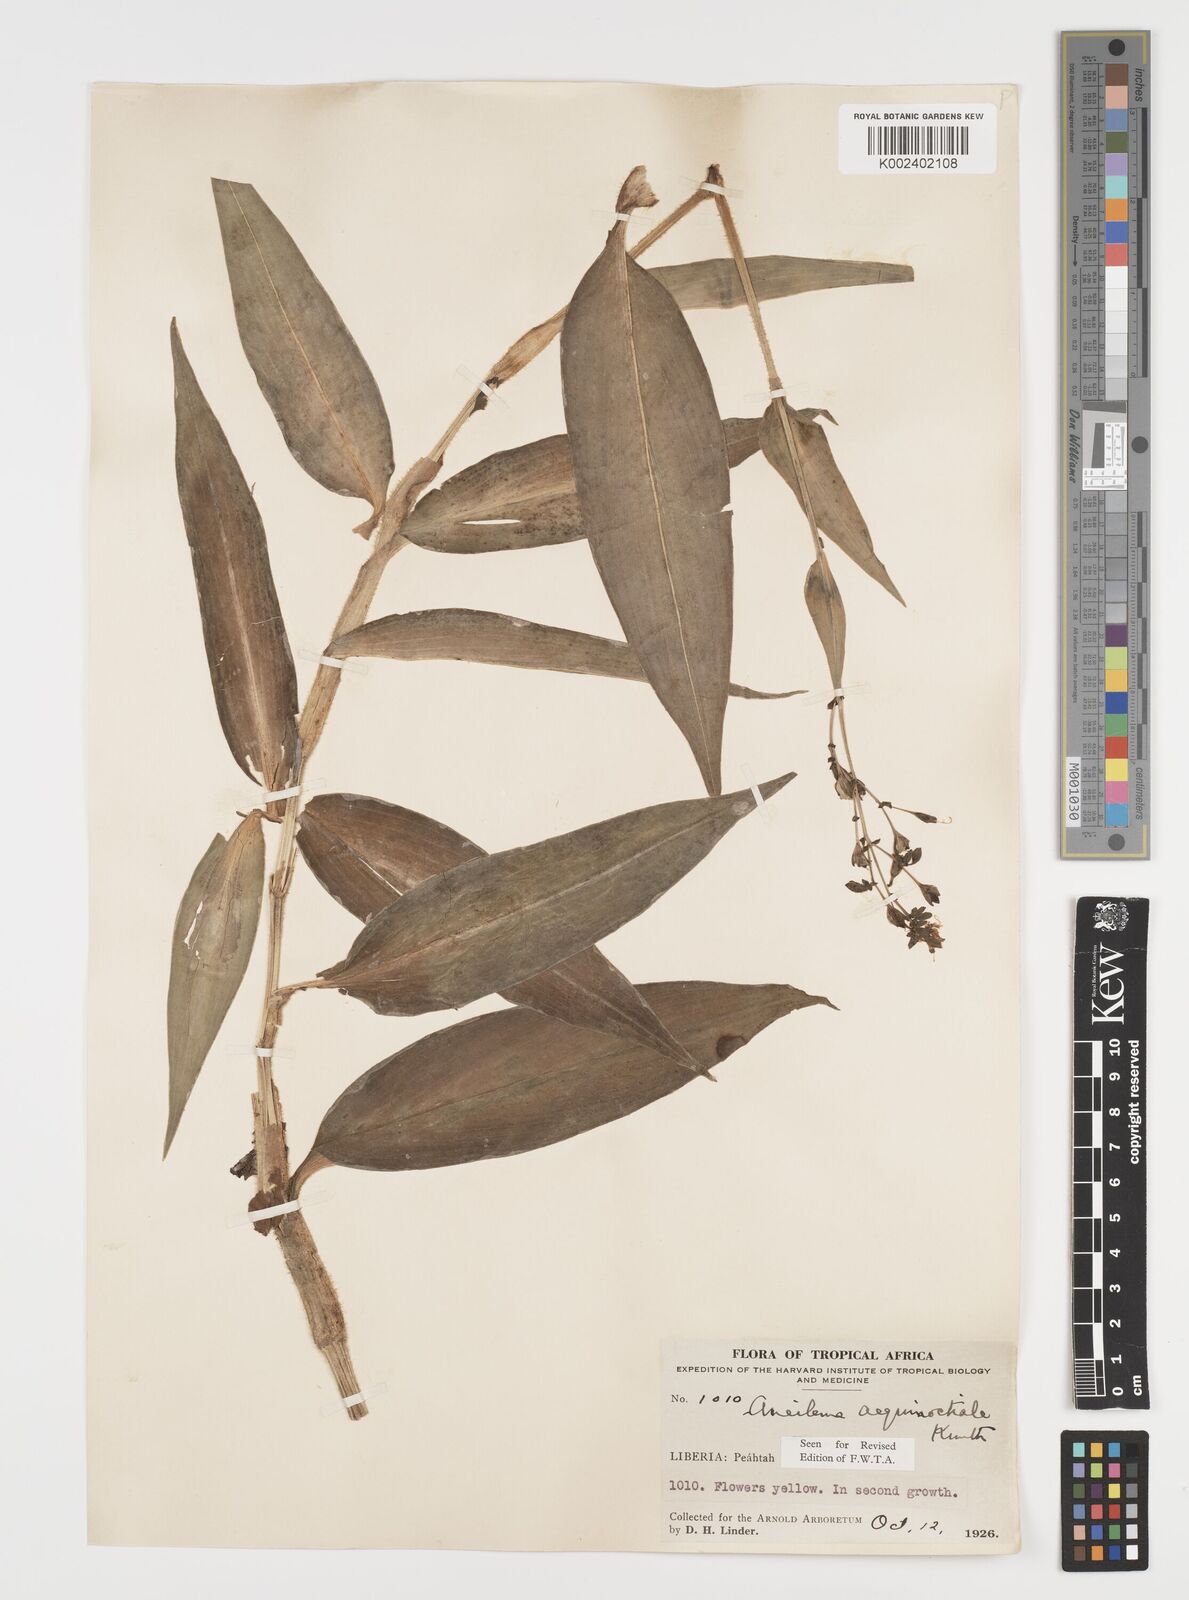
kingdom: Plantae
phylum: Tracheophyta
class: Liliopsida
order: Commelinales
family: Commelinaceae
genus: Aneilema
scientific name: Aneilema aequinoctiale
